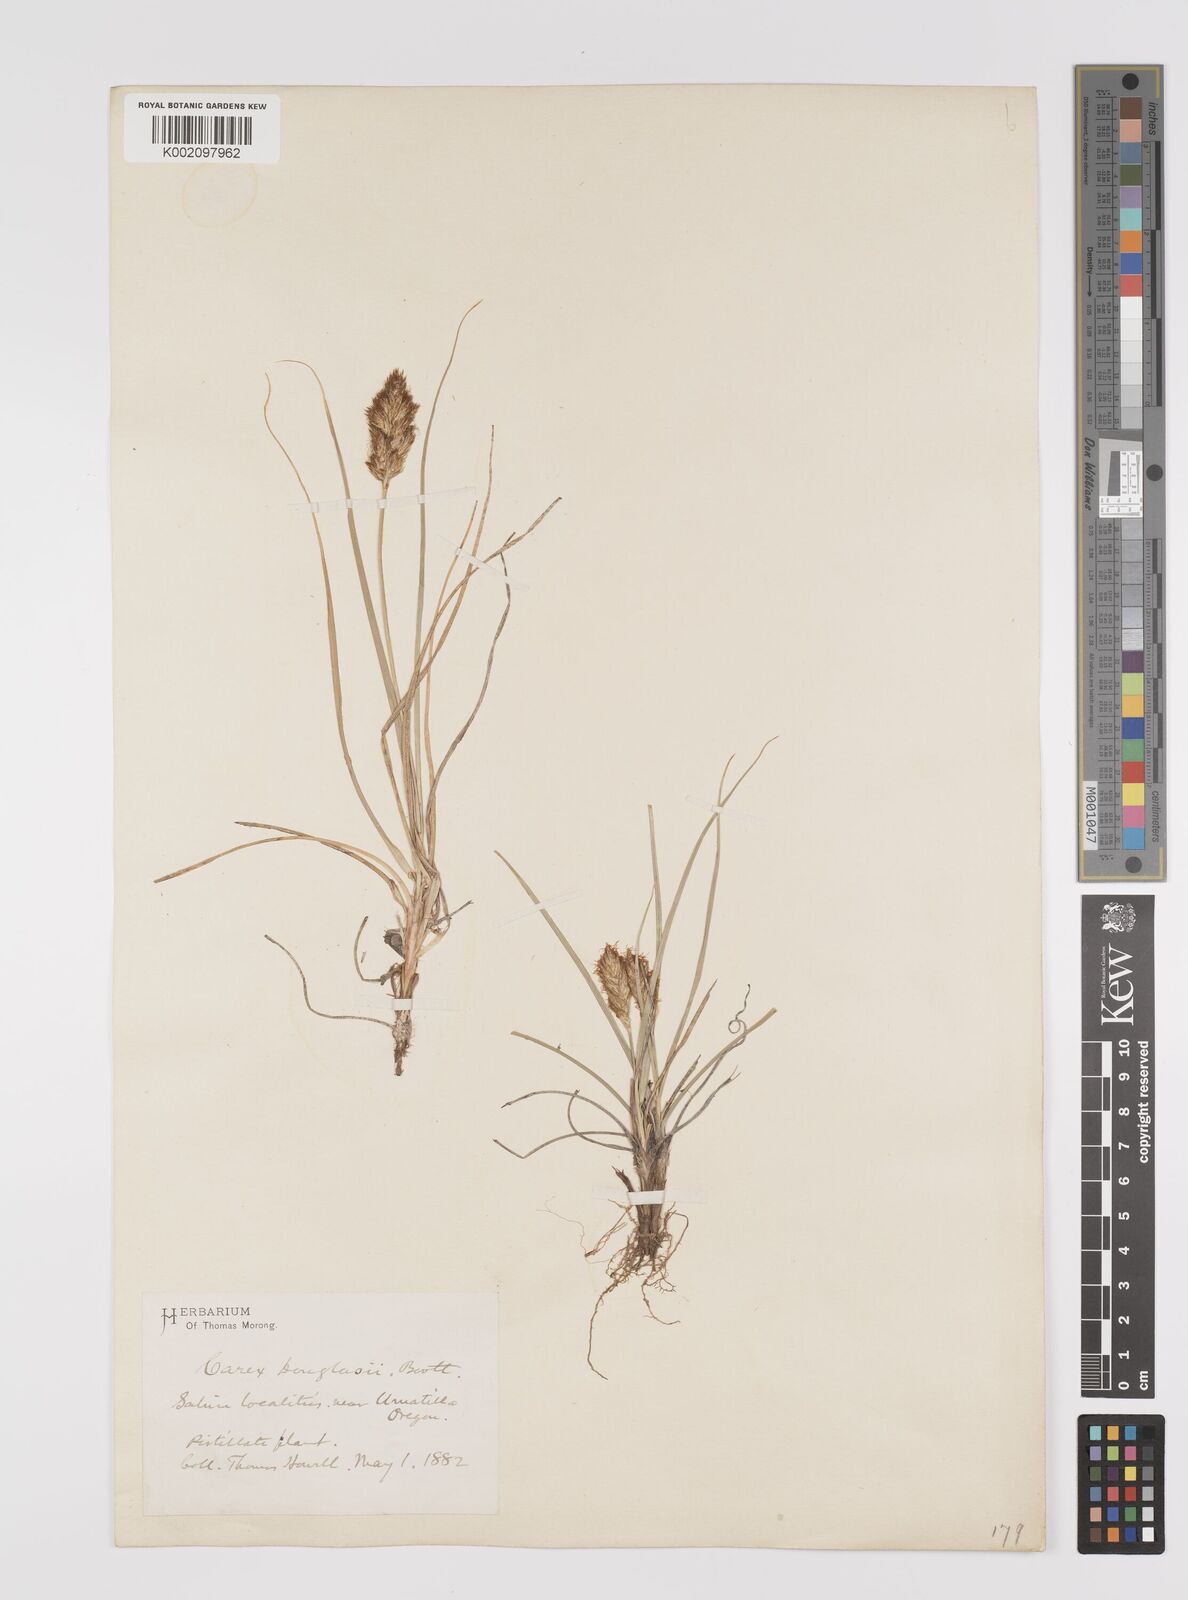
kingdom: Plantae
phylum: Tracheophyta
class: Liliopsida
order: Poales
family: Cyperaceae
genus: Carex
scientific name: Carex douglasii
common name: Douglas' sedge
